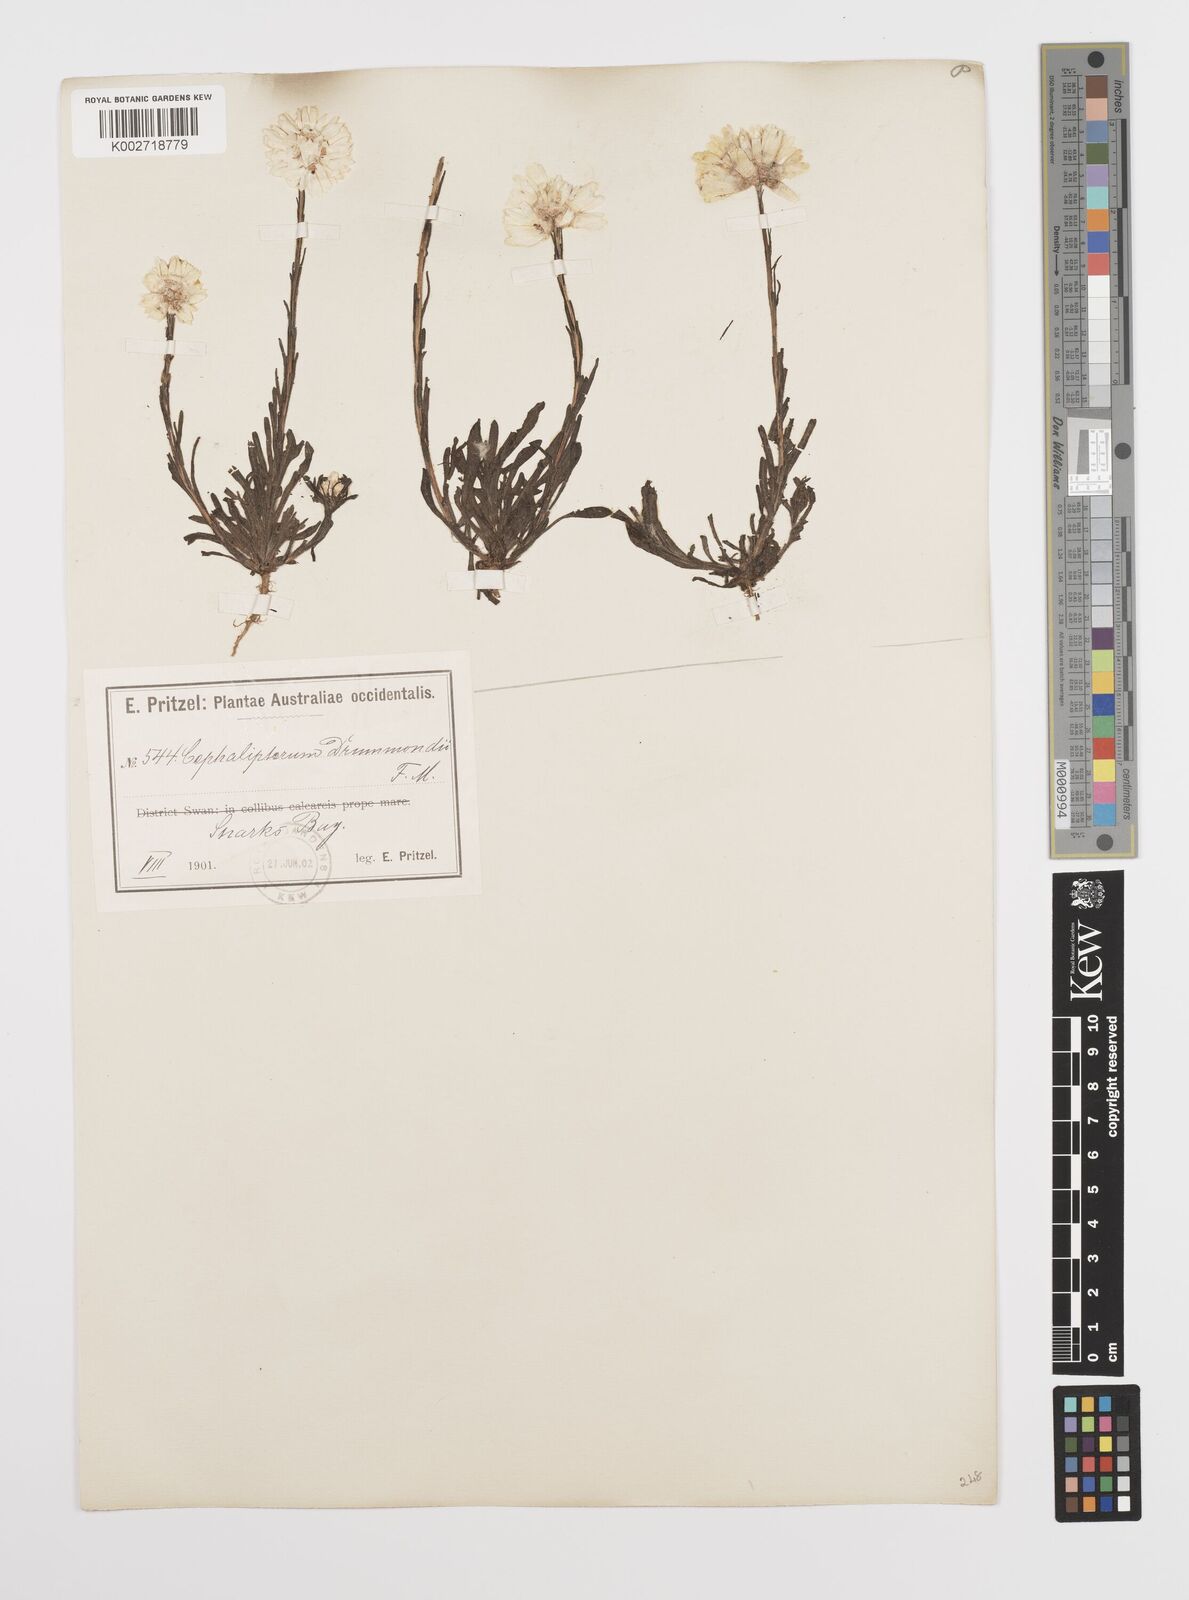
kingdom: Plantae
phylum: Tracheophyta
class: Magnoliopsida
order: Asterales
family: Asteraceae
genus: Cephalipterum
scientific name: Cephalipterum drummondii
